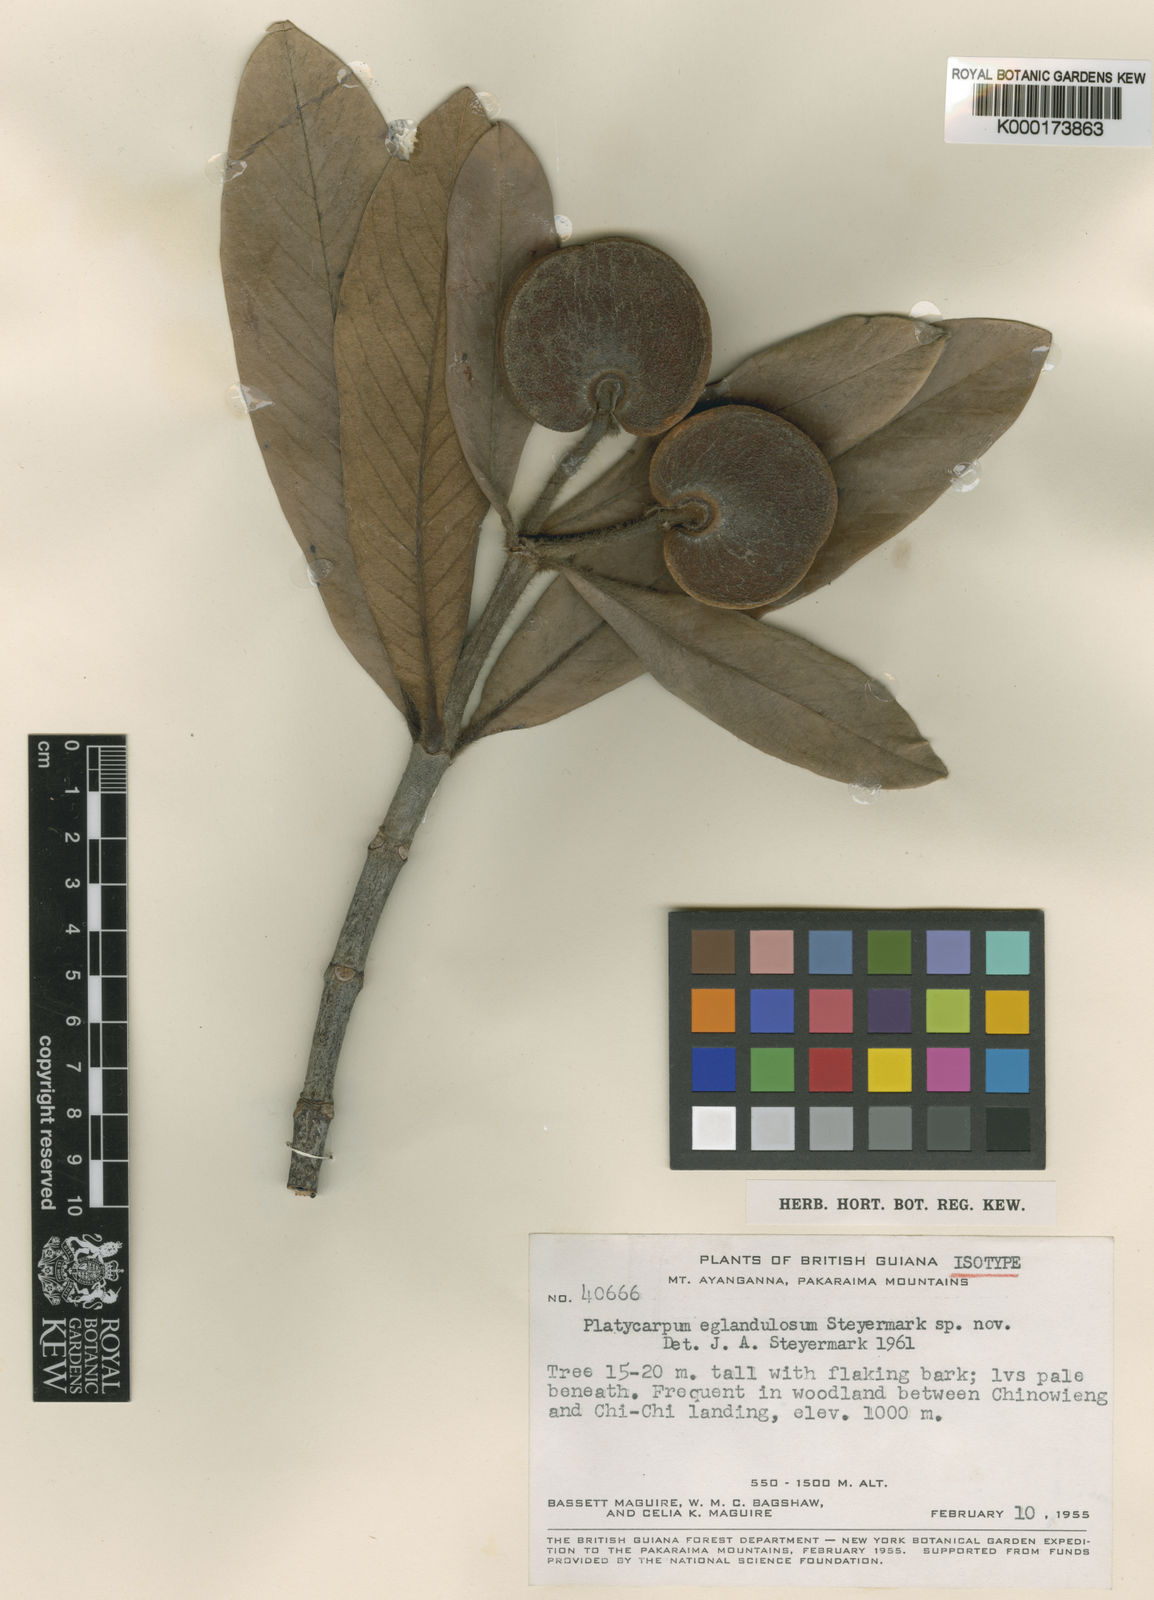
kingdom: Plantae
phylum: Tracheophyta
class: Magnoliopsida
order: Gentianales
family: Rubiaceae
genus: Platycarpum
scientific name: Platycarpum eglandulosum
